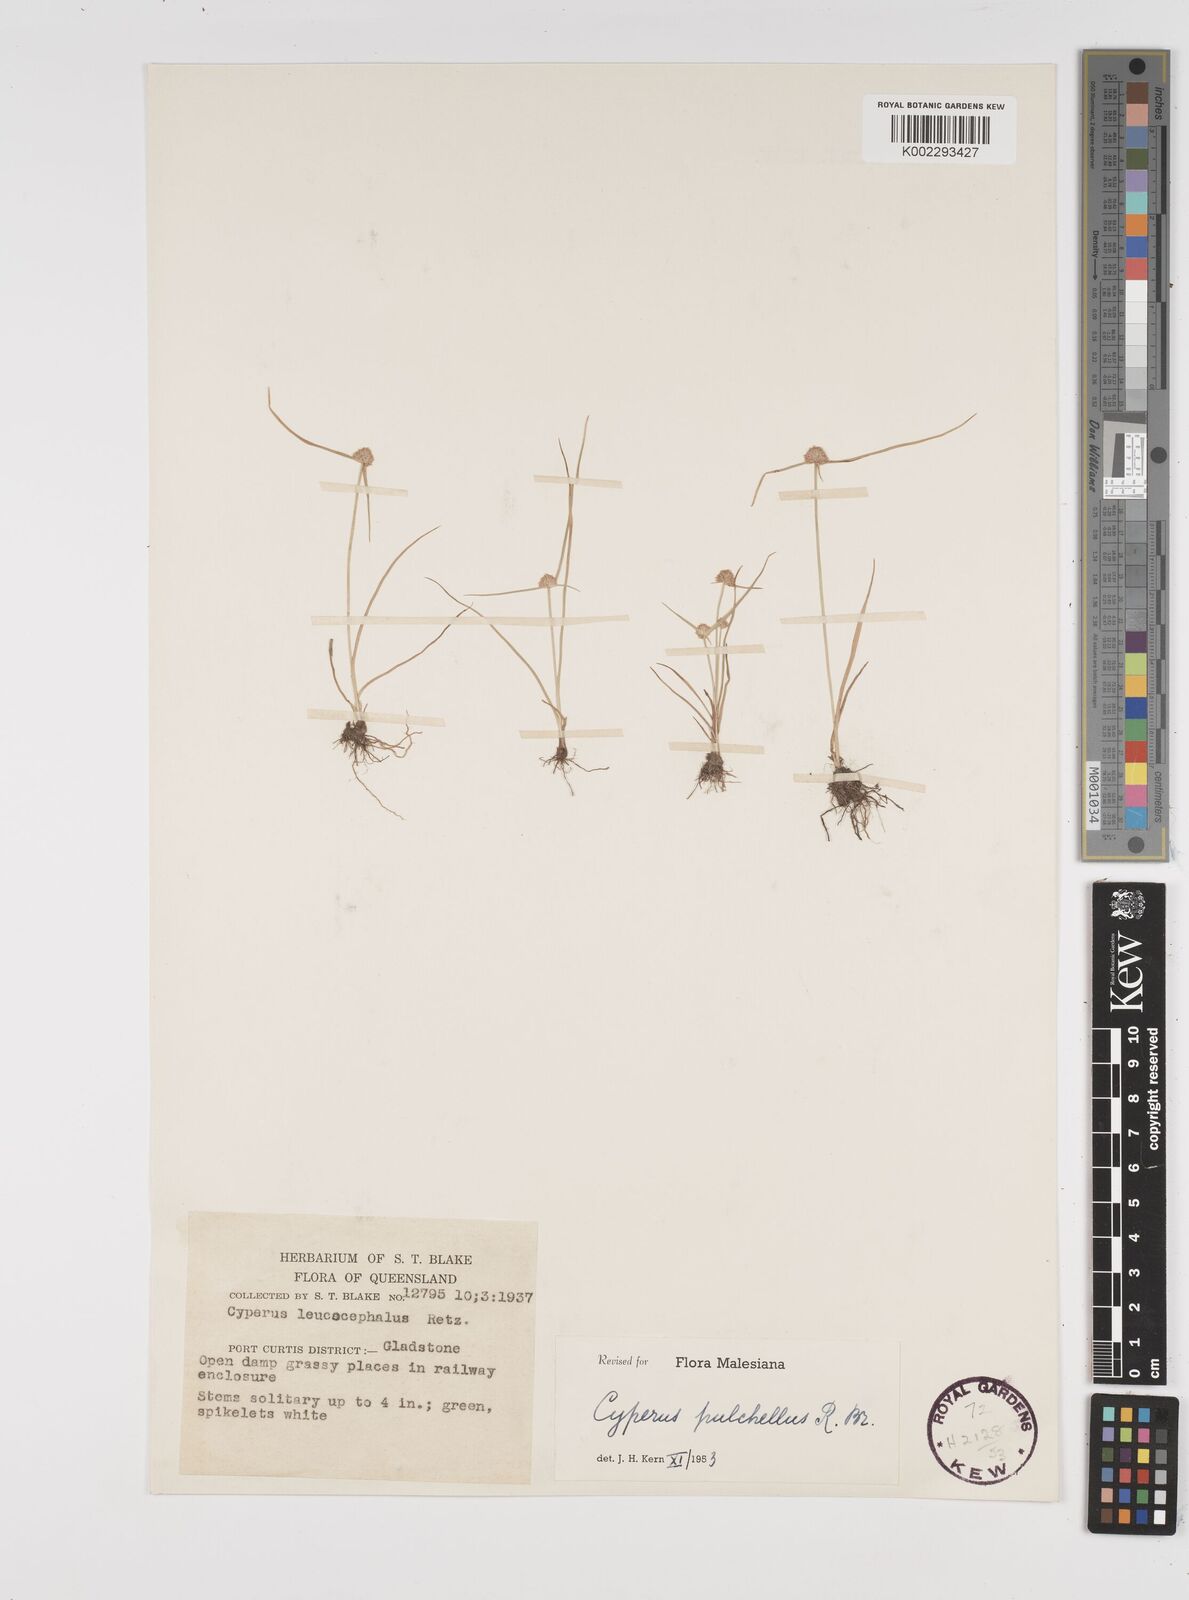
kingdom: Plantae
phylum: Tracheophyta
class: Liliopsida
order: Poales
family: Cyperaceae
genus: Cyperus
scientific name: Cyperus pulchellus
